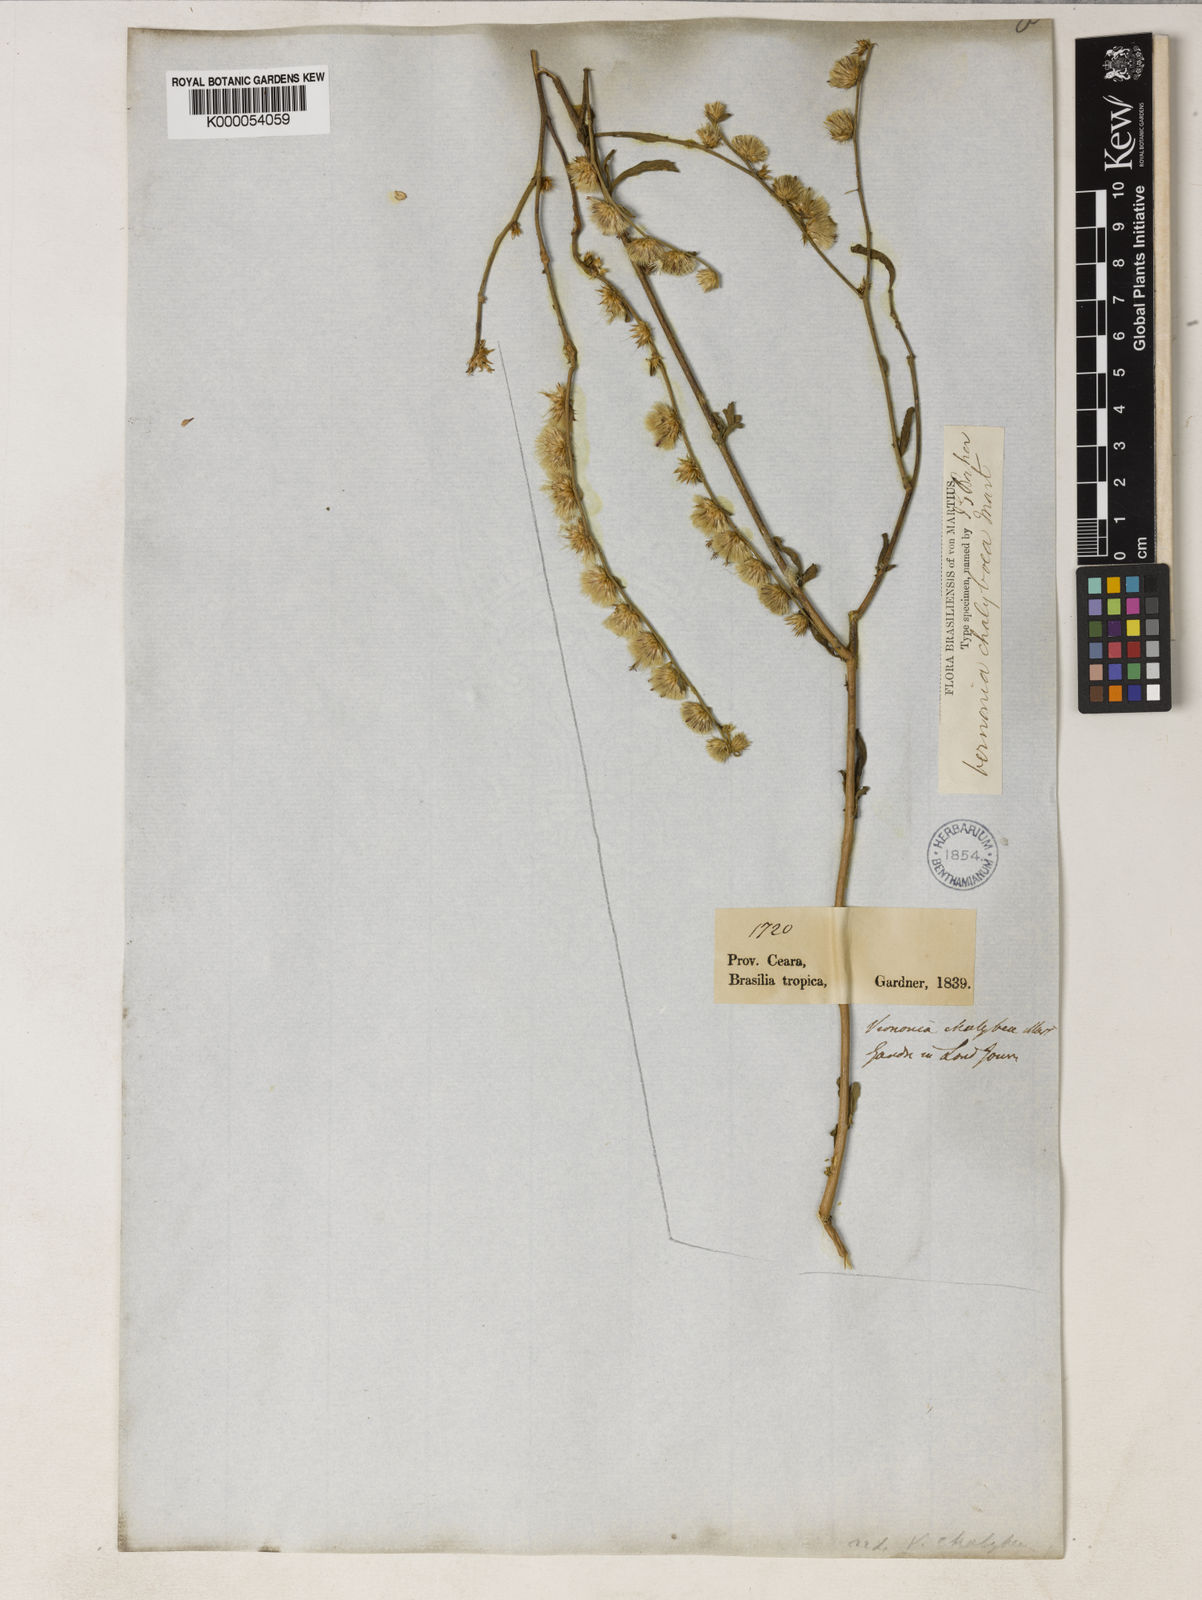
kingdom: Plantae
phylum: Tracheophyta
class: Magnoliopsida
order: Asterales
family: Asteraceae
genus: Lepidaploa
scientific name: Lepidaploa chalybaea
